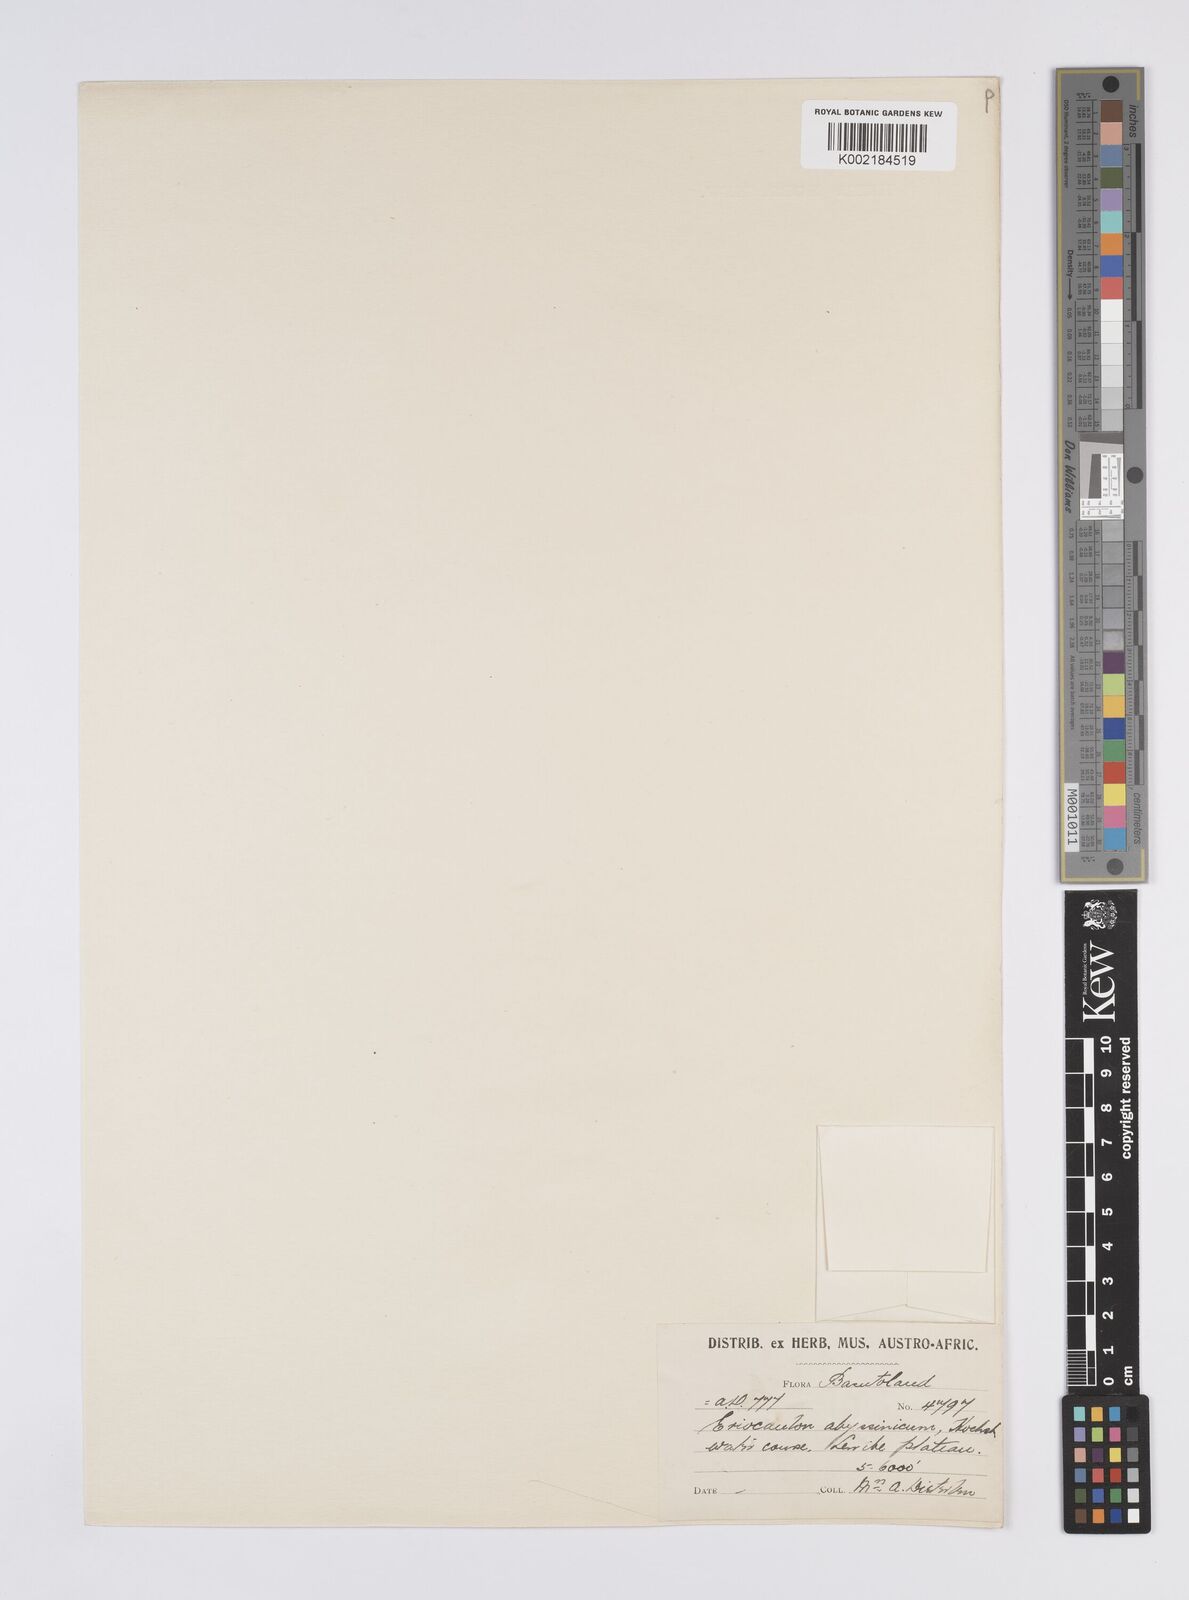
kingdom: Plantae
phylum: Tracheophyta
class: Liliopsida
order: Poales
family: Eriocaulaceae
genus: Eriocaulon
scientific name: Eriocaulon abyssinicum
